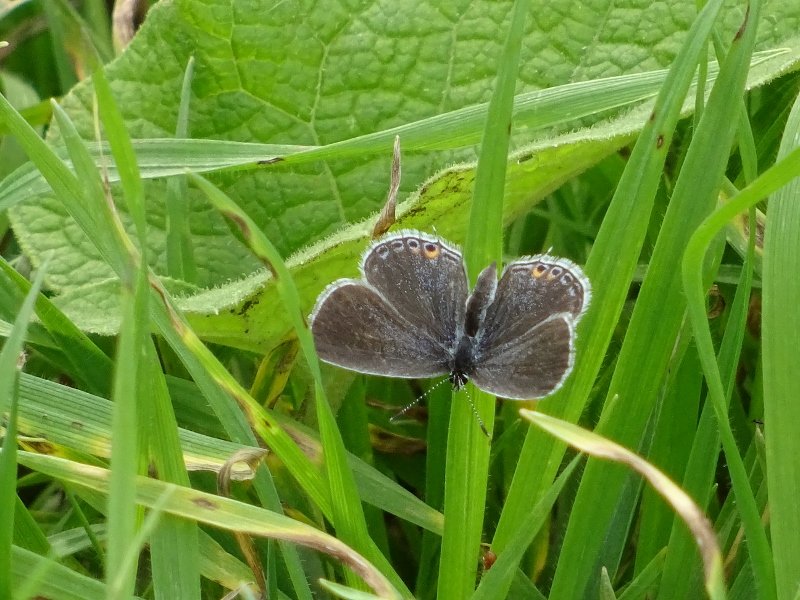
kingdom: Animalia
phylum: Arthropoda
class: Insecta
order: Lepidoptera
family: Lycaenidae
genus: Elkalyce
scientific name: Elkalyce comyntas
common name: Eastern Tailed-Blue
